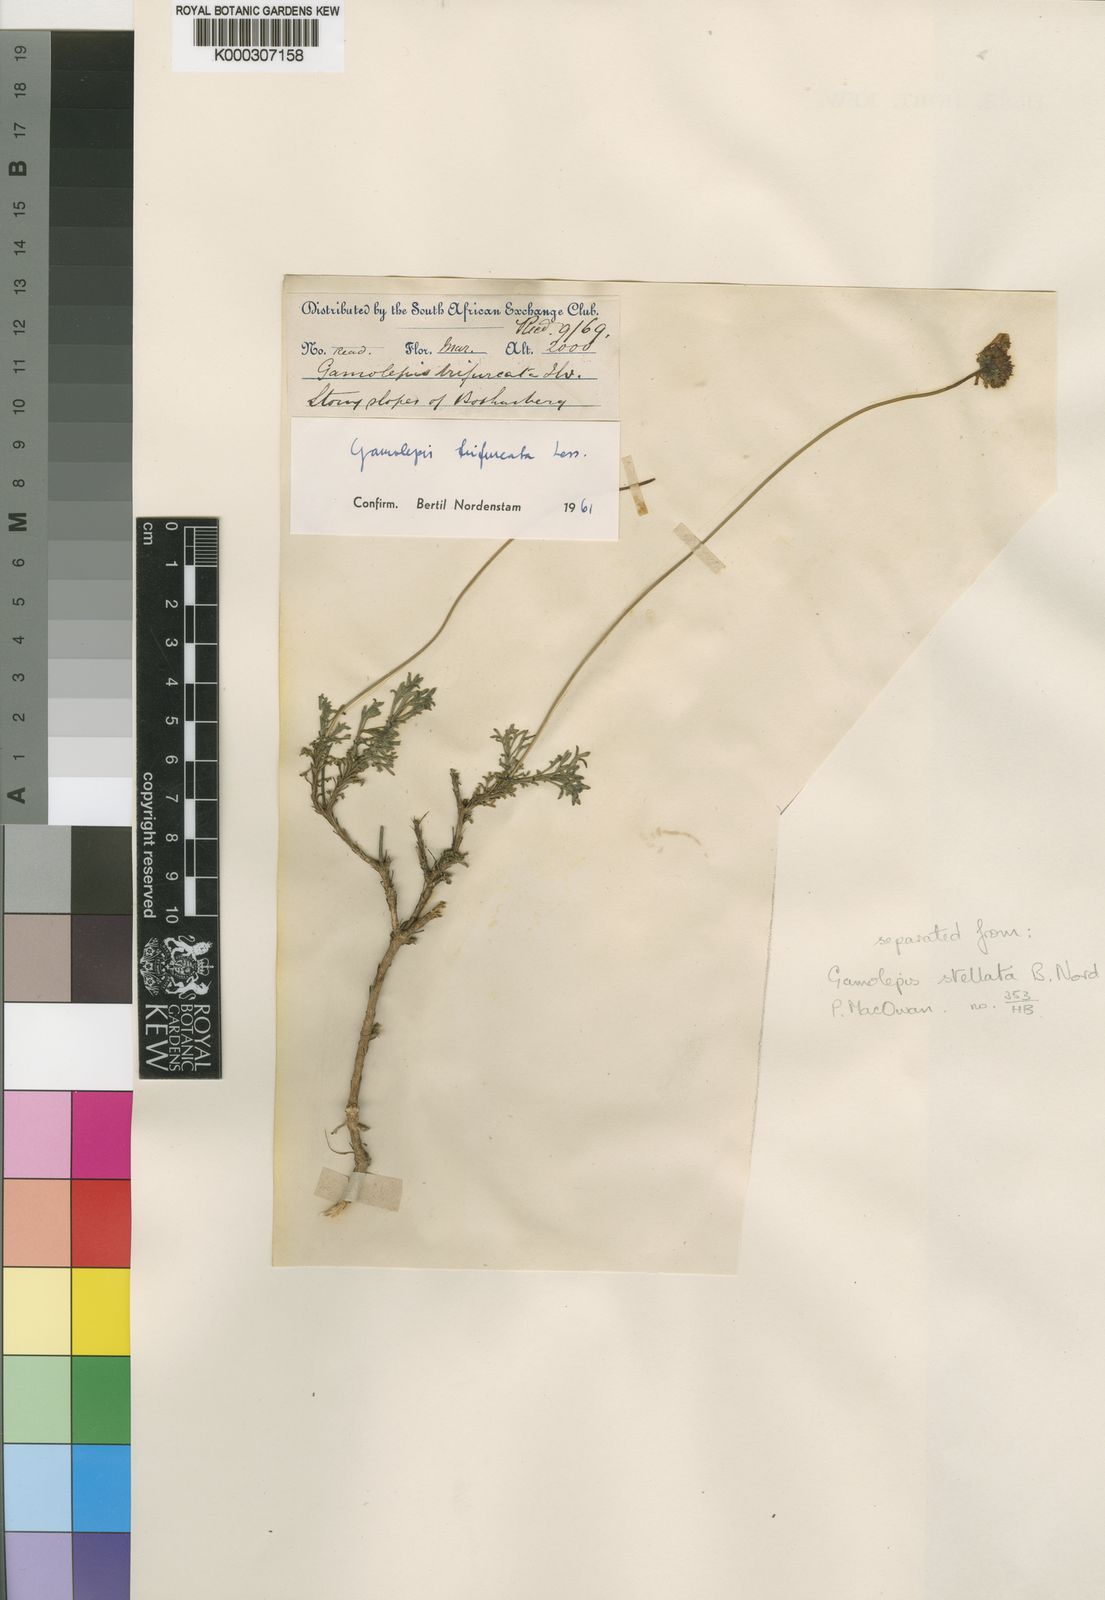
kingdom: Plantae
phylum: Tracheophyta
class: Magnoliopsida
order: Asterales
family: Asteraceae
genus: Euryops
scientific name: Euryops anthemoides
